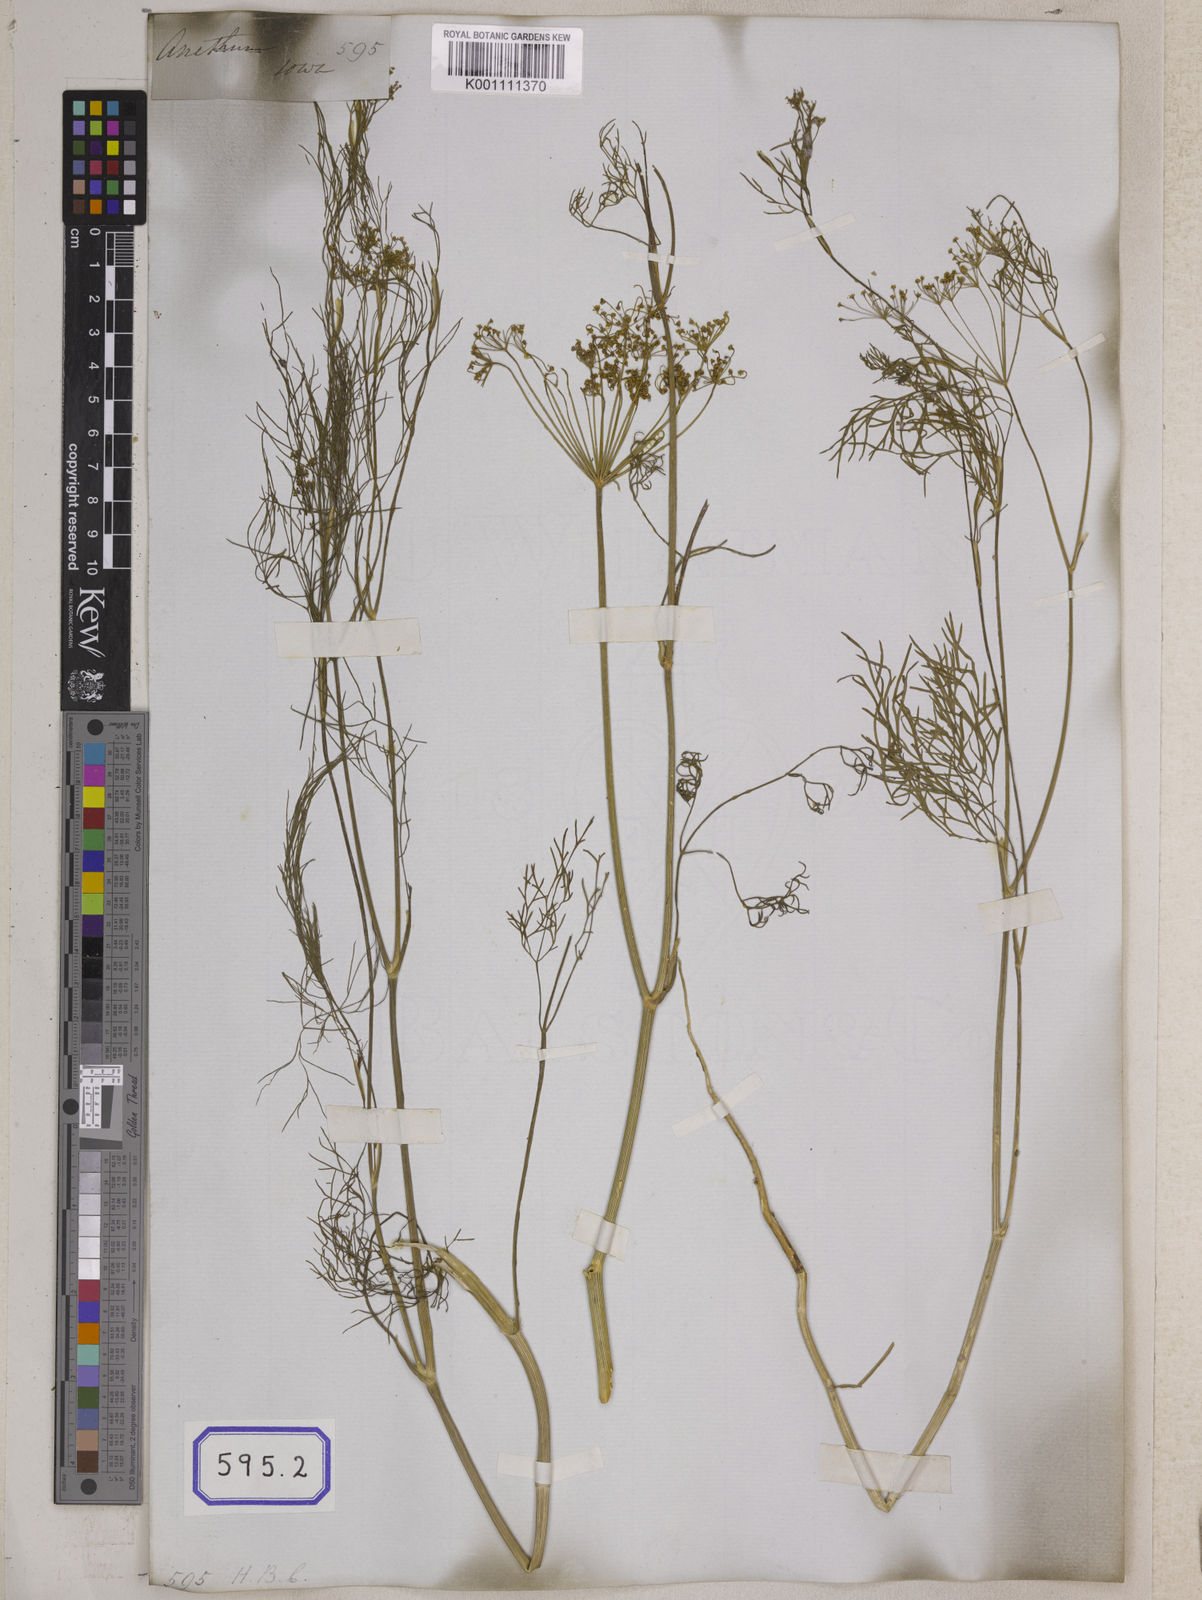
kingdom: Plantae
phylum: Tracheophyta
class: Magnoliopsida
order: Apiales
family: Apiaceae
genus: Anethum
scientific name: Anethum graveolens
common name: Dill
